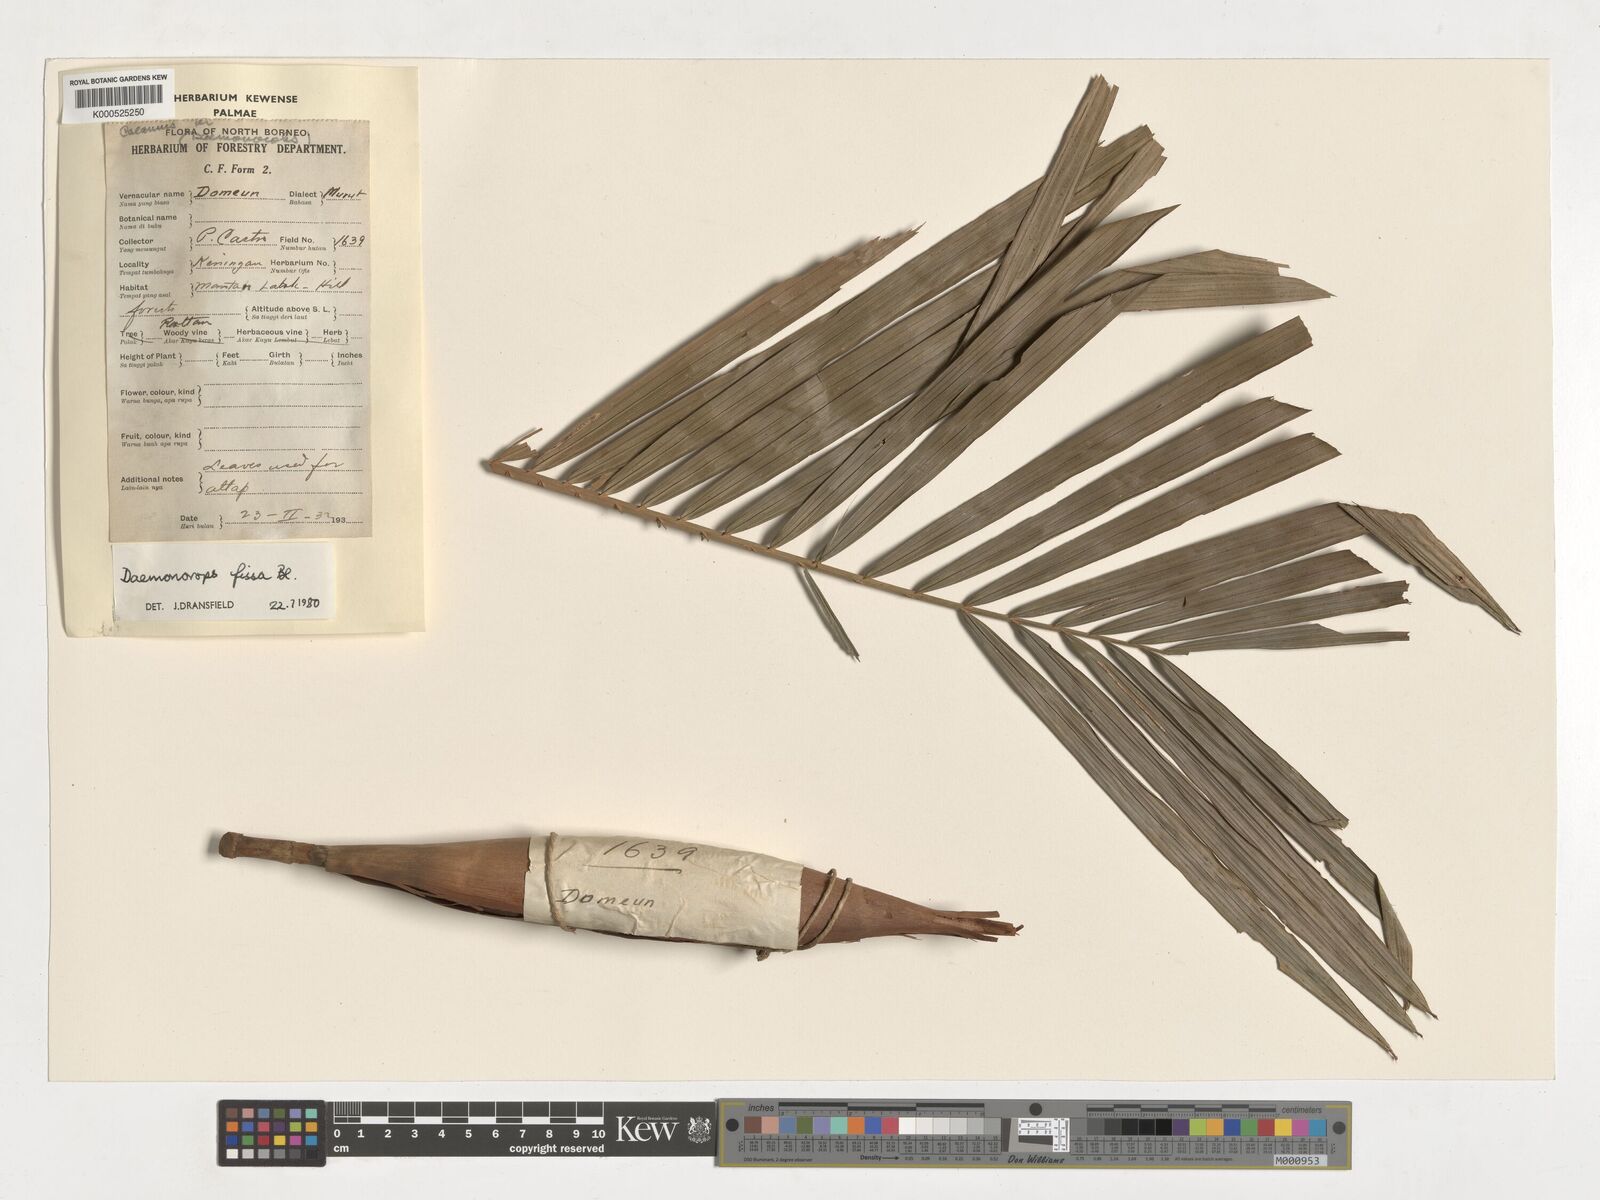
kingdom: Plantae
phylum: Tracheophyta
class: Liliopsida
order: Arecales
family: Arecaceae
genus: Calamus
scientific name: Calamus melanochaetes
